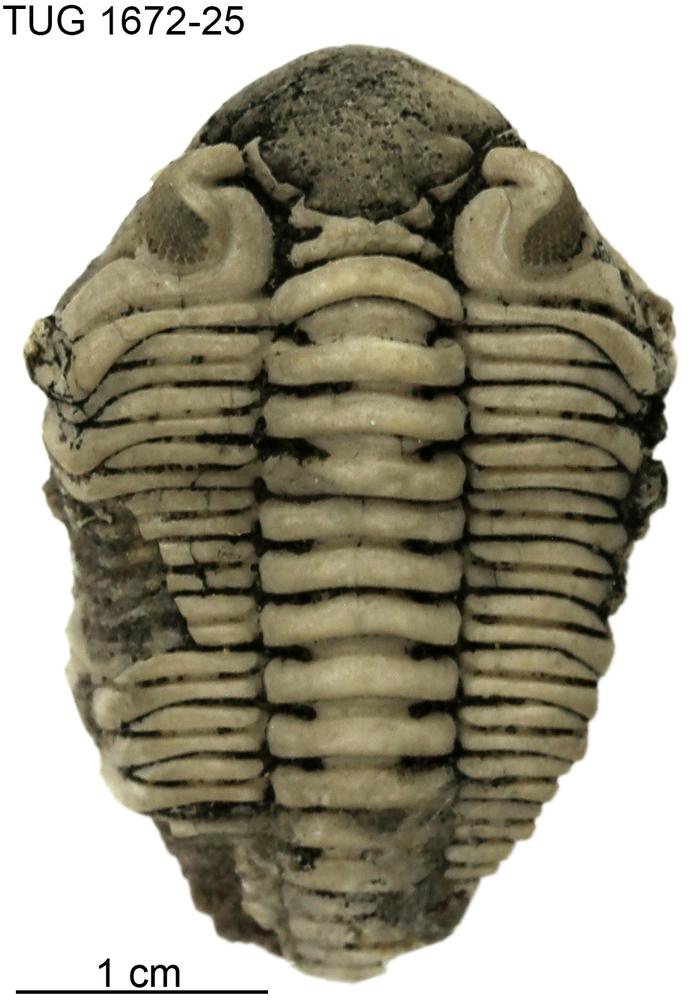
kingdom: Animalia
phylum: Arthropoda
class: Trilobita
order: Phacopida
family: Pterygometopidae
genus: Estoniops
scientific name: Estoniops exilis
